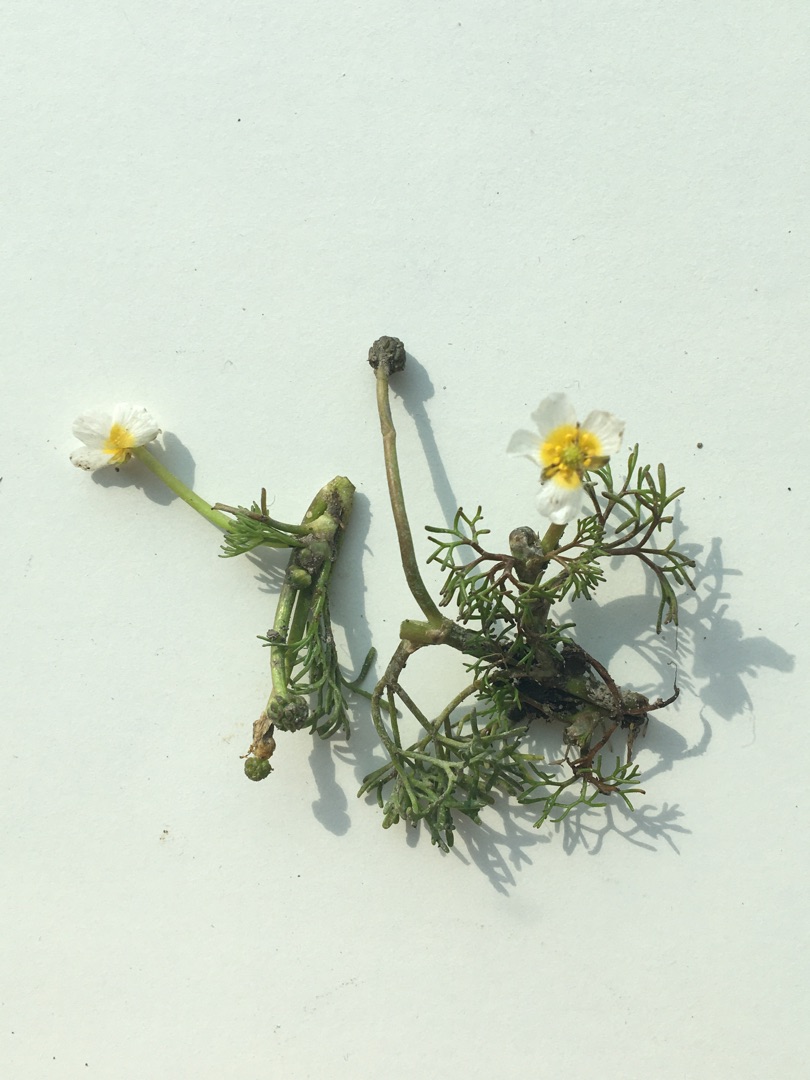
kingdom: Plantae
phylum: Tracheophyta
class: Magnoliopsida
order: Ranunculales
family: Ranunculaceae
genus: Ranunculus
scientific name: Ranunculus
